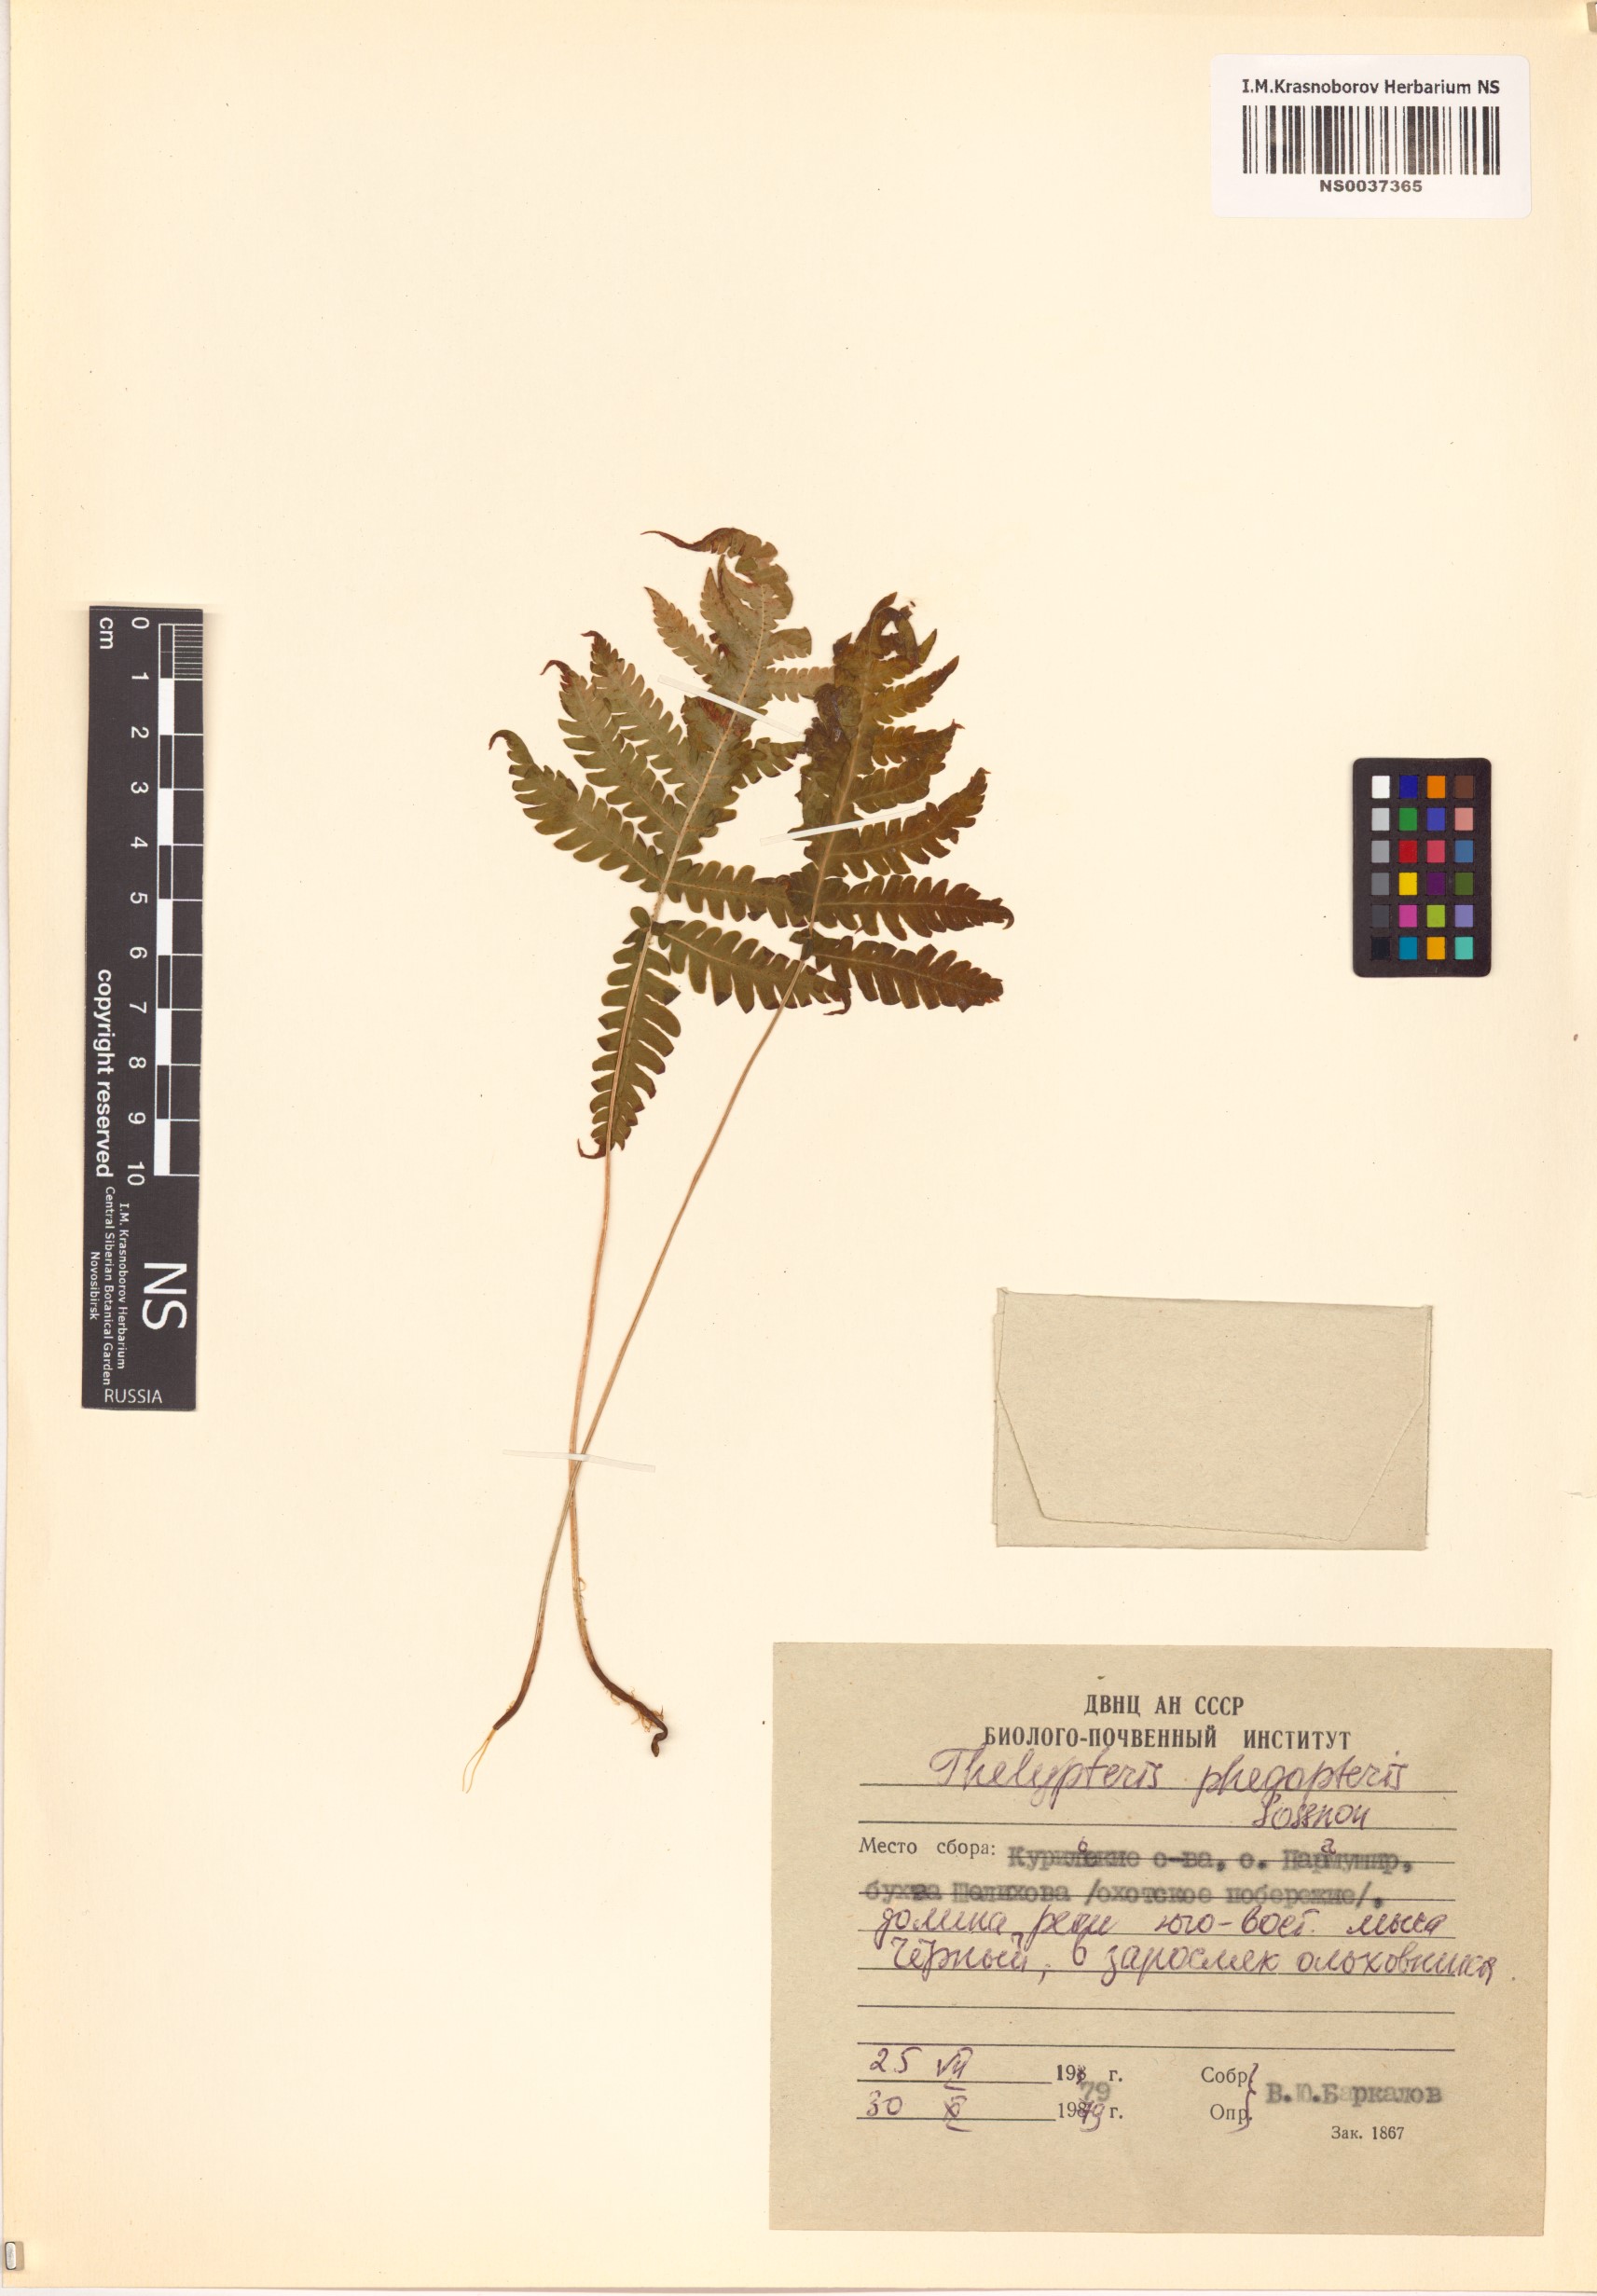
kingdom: Plantae
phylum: Tracheophyta
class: Polypodiopsida
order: Polypodiales
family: Thelypteridaceae
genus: Phegopteris
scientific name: Phegopteris connectilis
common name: Beech fern
